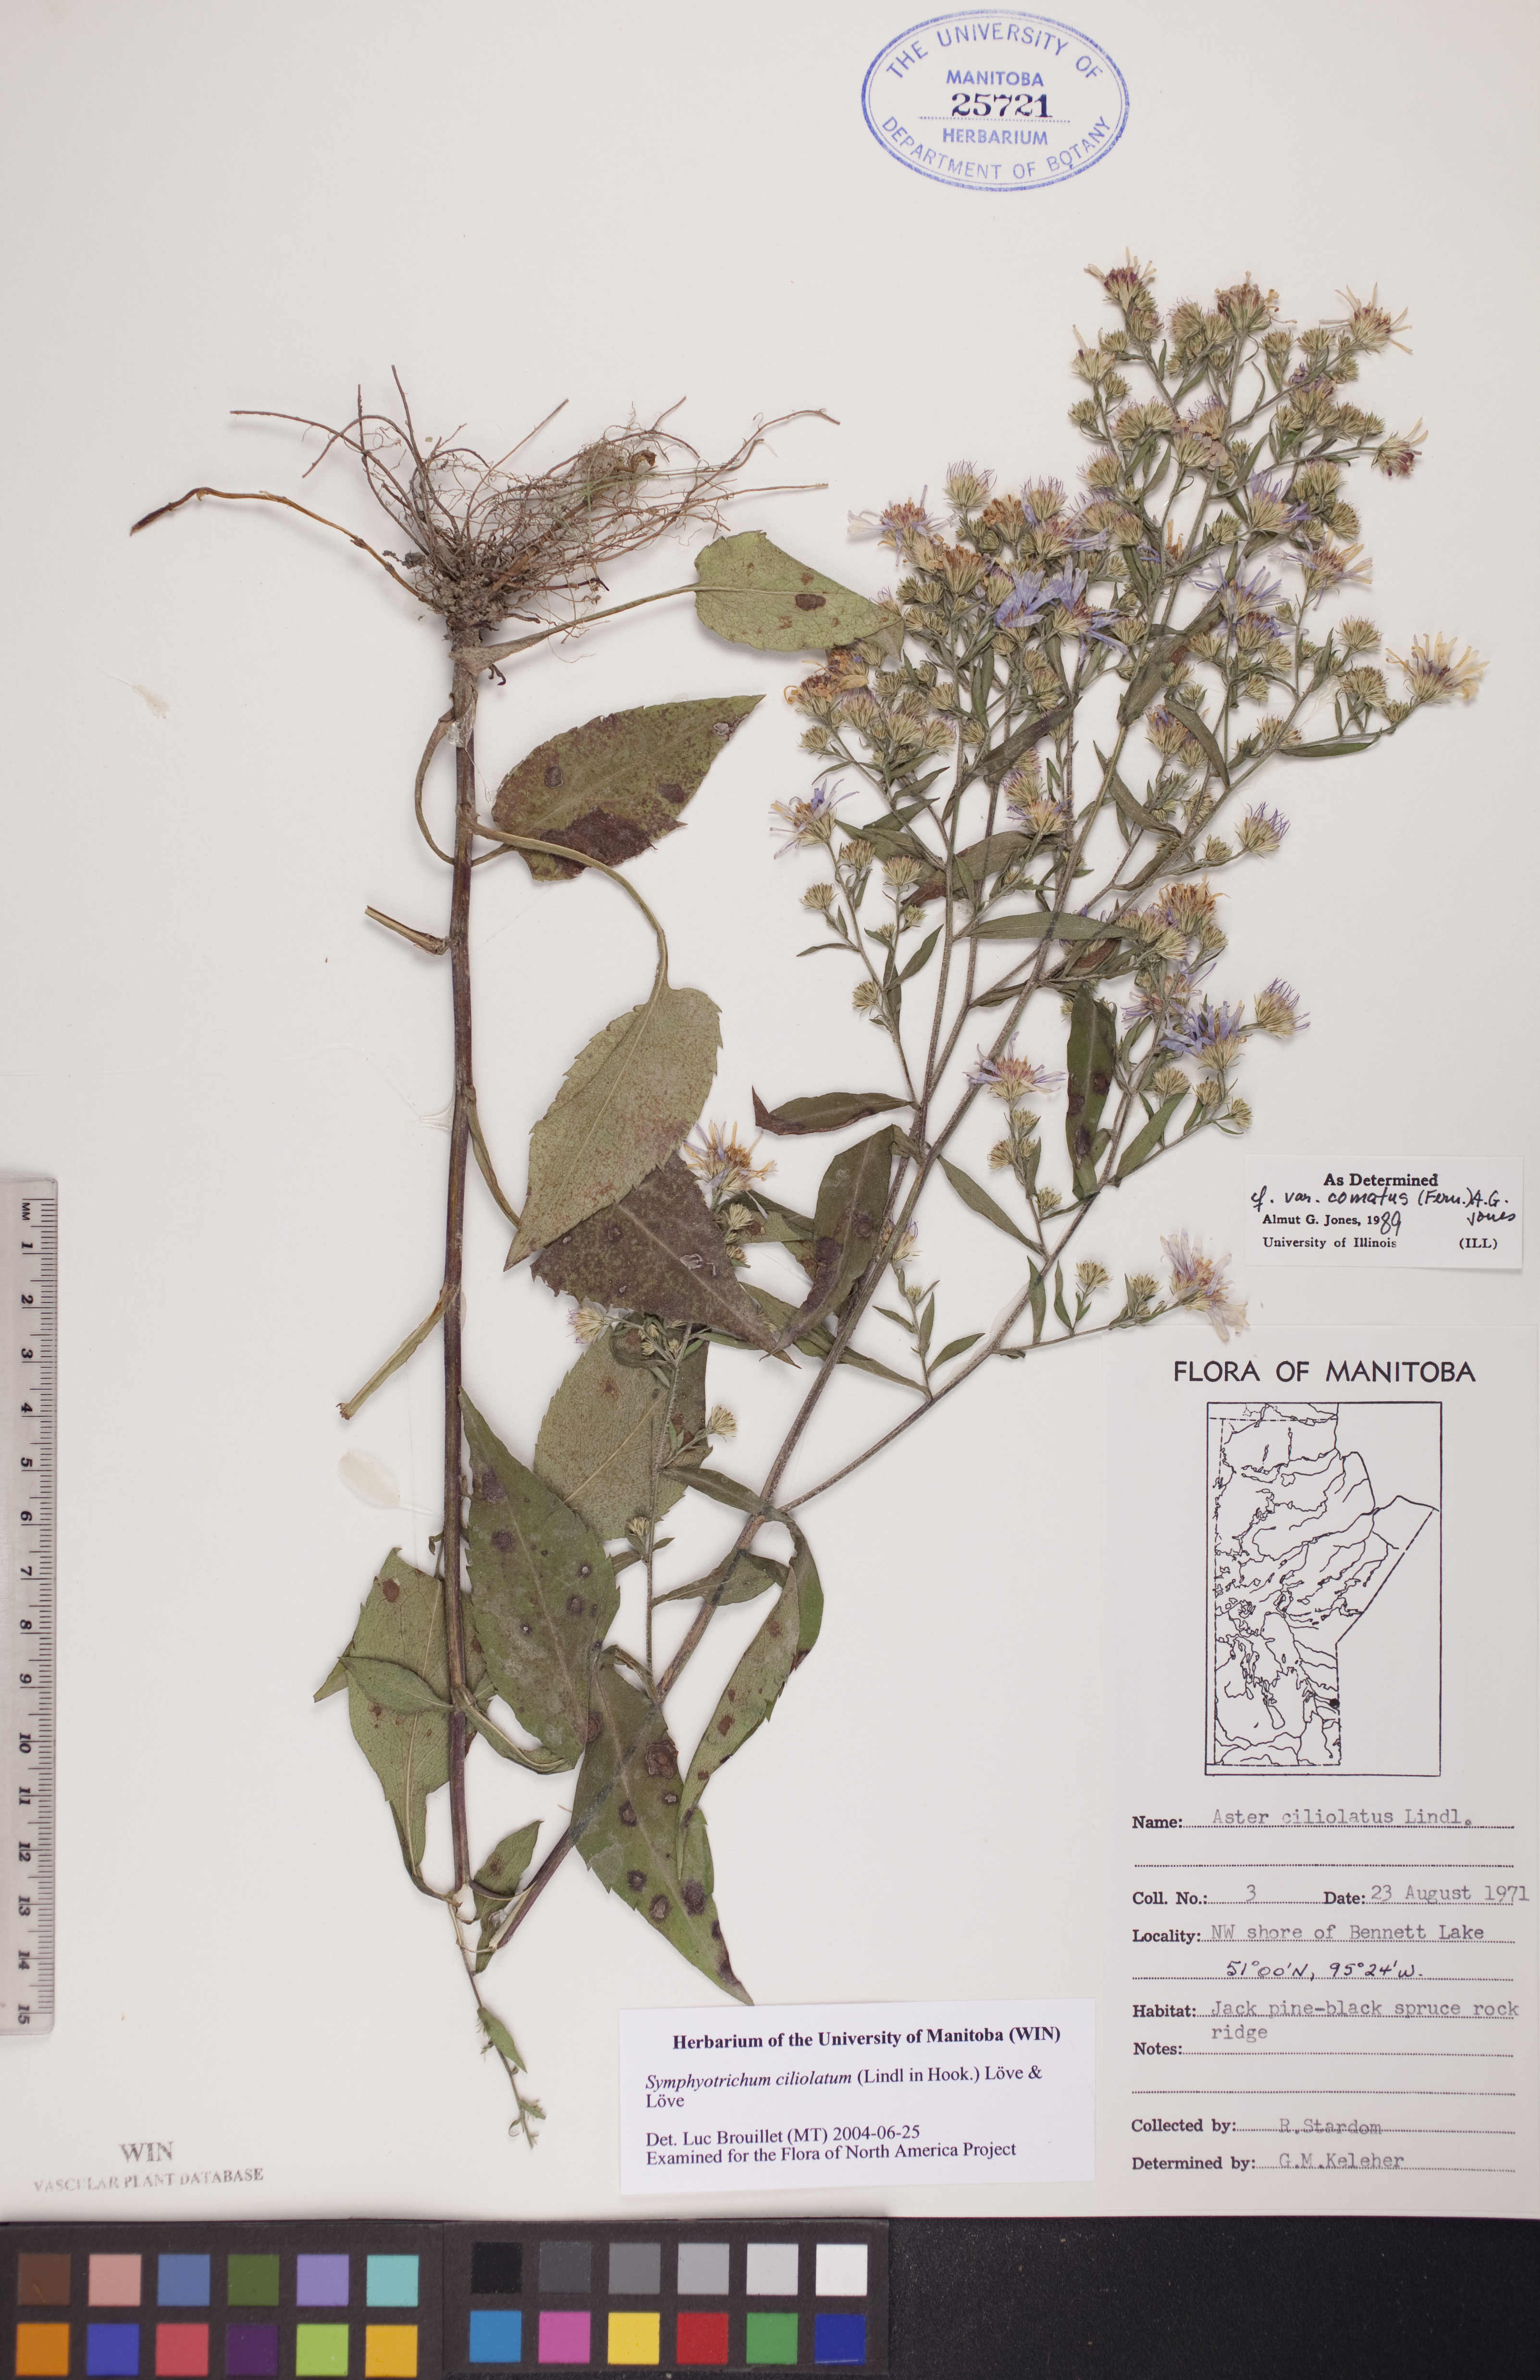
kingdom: Plantae
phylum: Tracheophyta
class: Magnoliopsida
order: Asterales
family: Asteraceae
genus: Symphyotrichum
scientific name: Symphyotrichum ciliolatum
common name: Fringed blue aster
